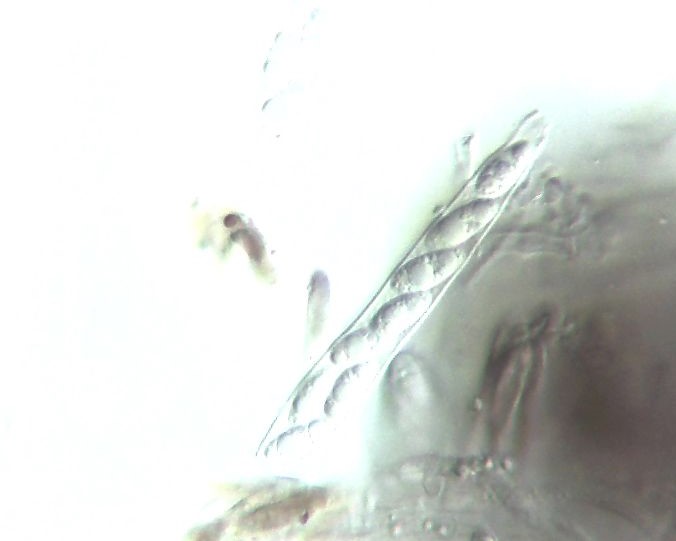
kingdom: Fungi
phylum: Ascomycota
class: Leotiomycetes
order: Helotiales
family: Cenangiaceae
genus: Trochila
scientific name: Trochila ilicina
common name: kristtorn-lågskive
